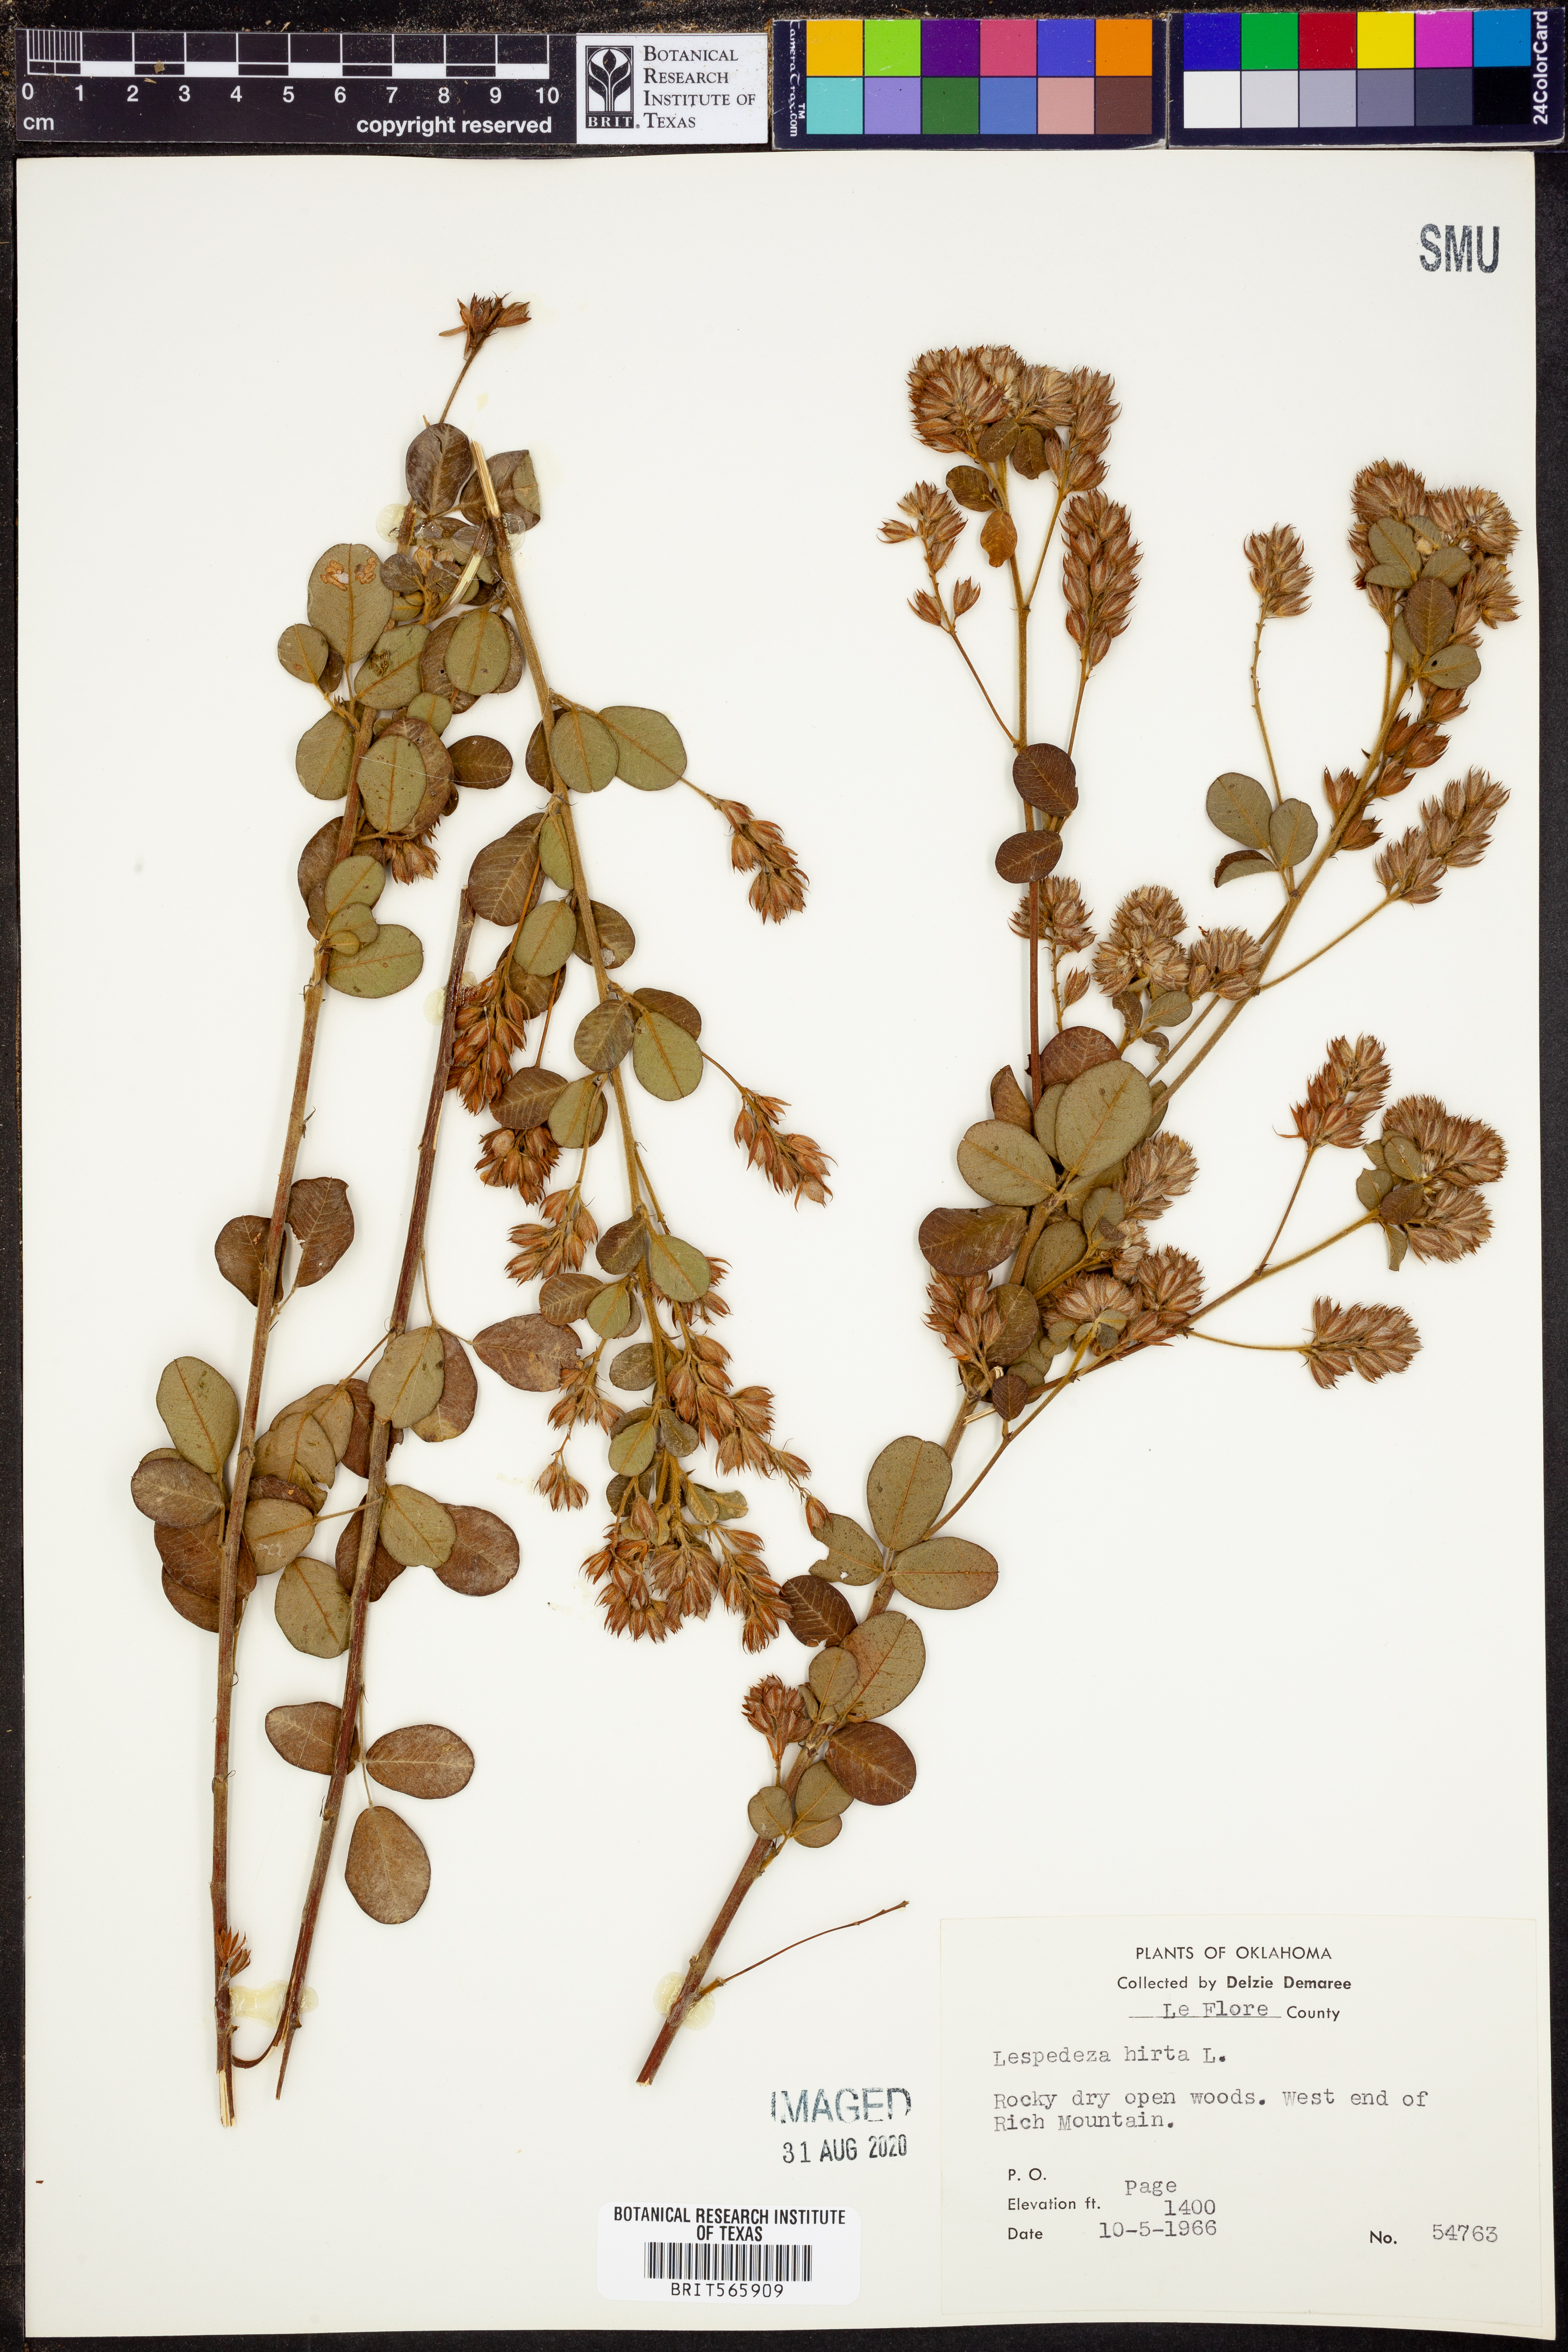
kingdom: Plantae
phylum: Tracheophyta
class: Magnoliopsida
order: Fabales
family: Fabaceae
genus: Lespedeza
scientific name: Lespedeza hirta
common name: Hairy lespedeza
